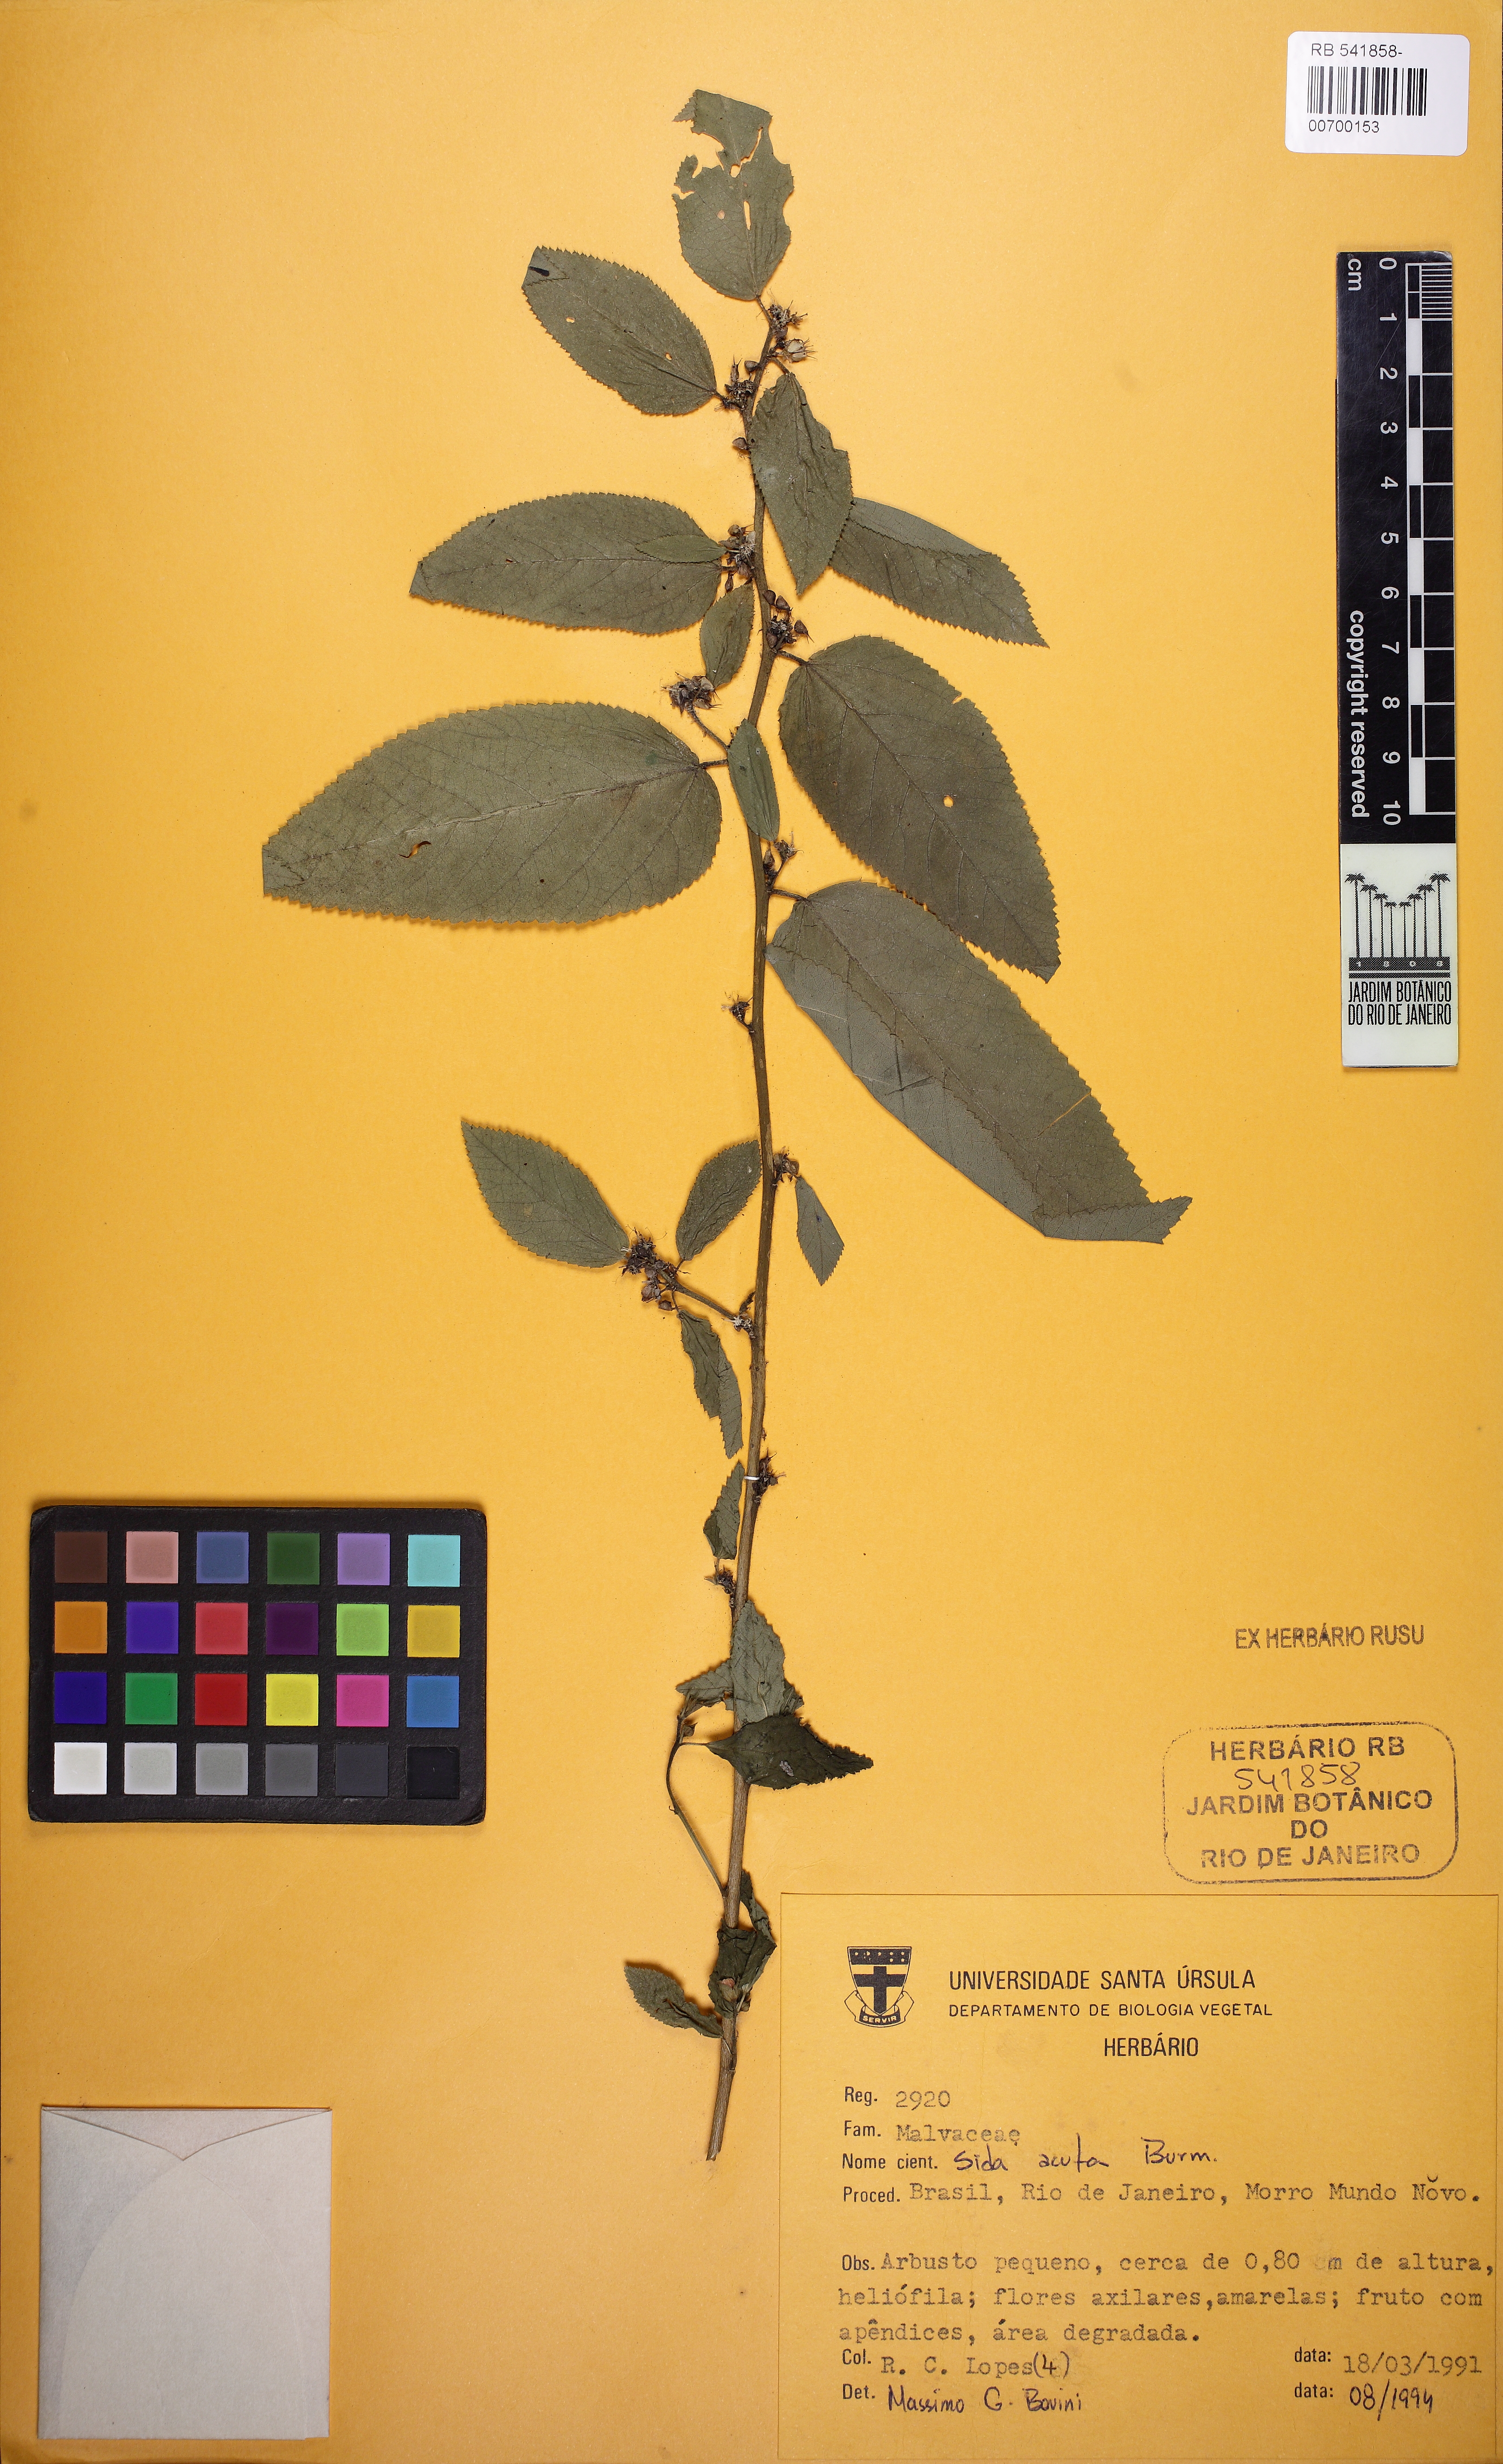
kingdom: Plantae
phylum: Tracheophyta
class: Magnoliopsida
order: Malvales
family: Malvaceae
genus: Sida
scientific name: Sida acuta
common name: Common wireweed
